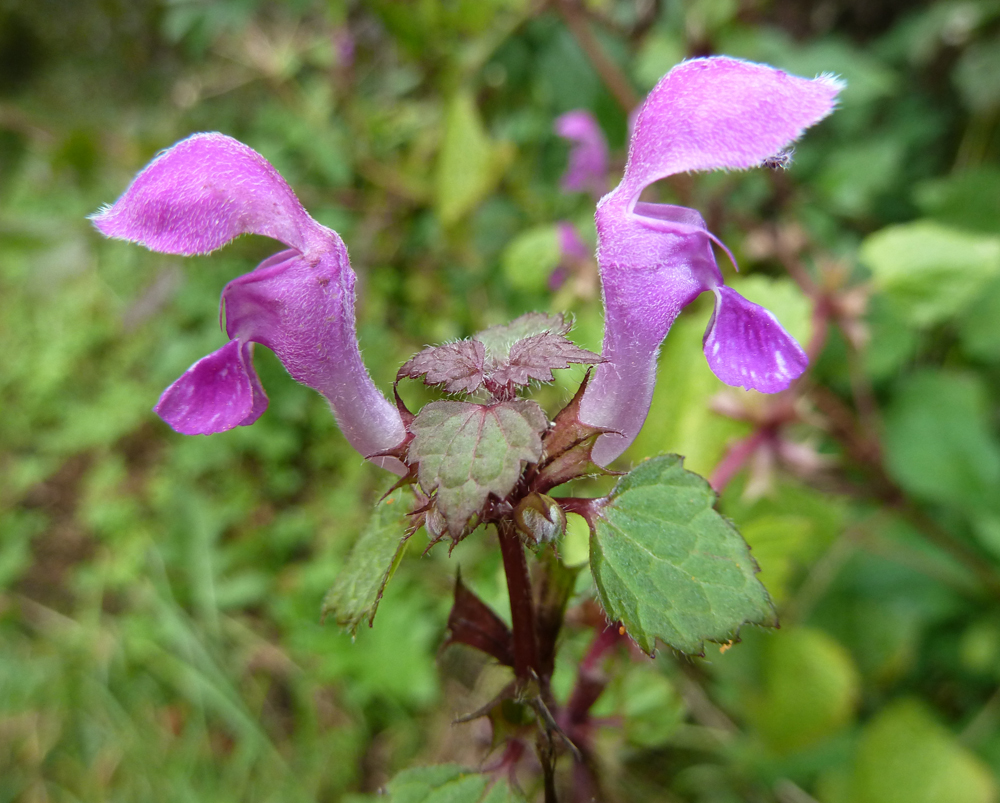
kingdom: Plantae
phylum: Tracheophyta
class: Magnoliopsida
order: Lamiales
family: Lamiaceae
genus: Lamium
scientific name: Lamium maculatum
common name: Spotted dead-nettle
